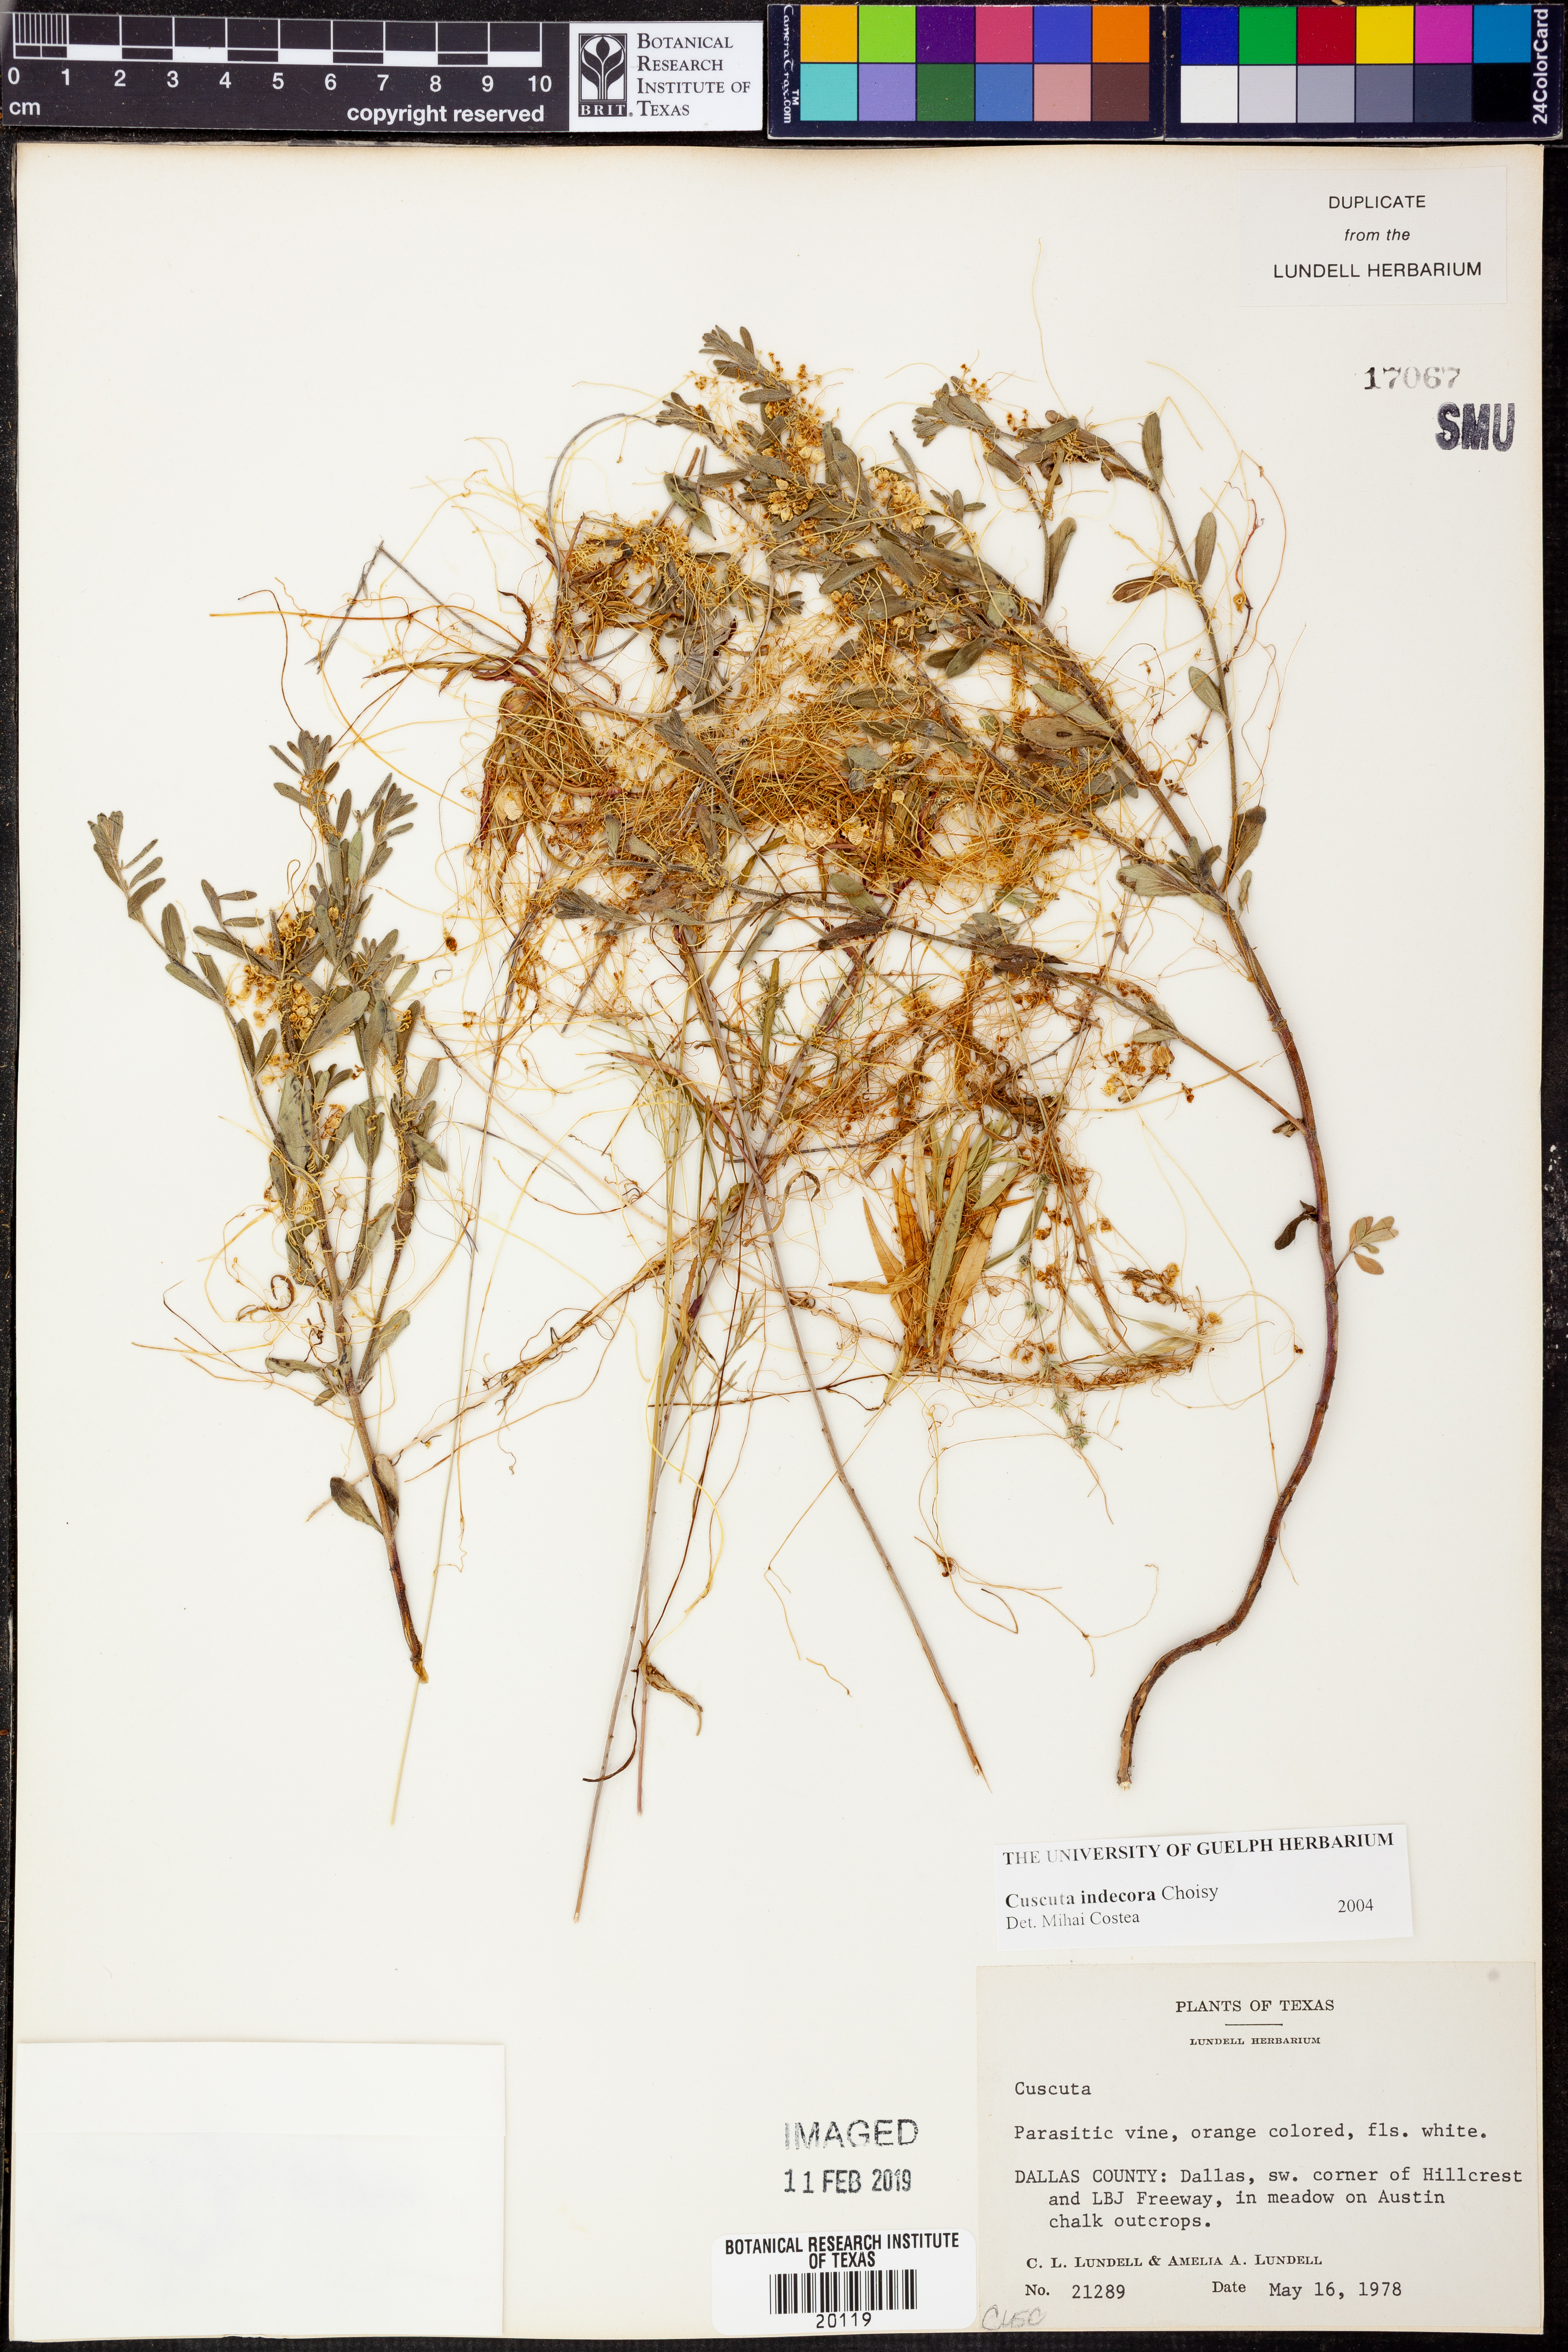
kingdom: Plantae
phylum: Tracheophyta
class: Magnoliopsida
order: Solanales
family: Convolvulaceae
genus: Cuscuta
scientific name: Cuscuta indecora
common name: Large-seed dodder
